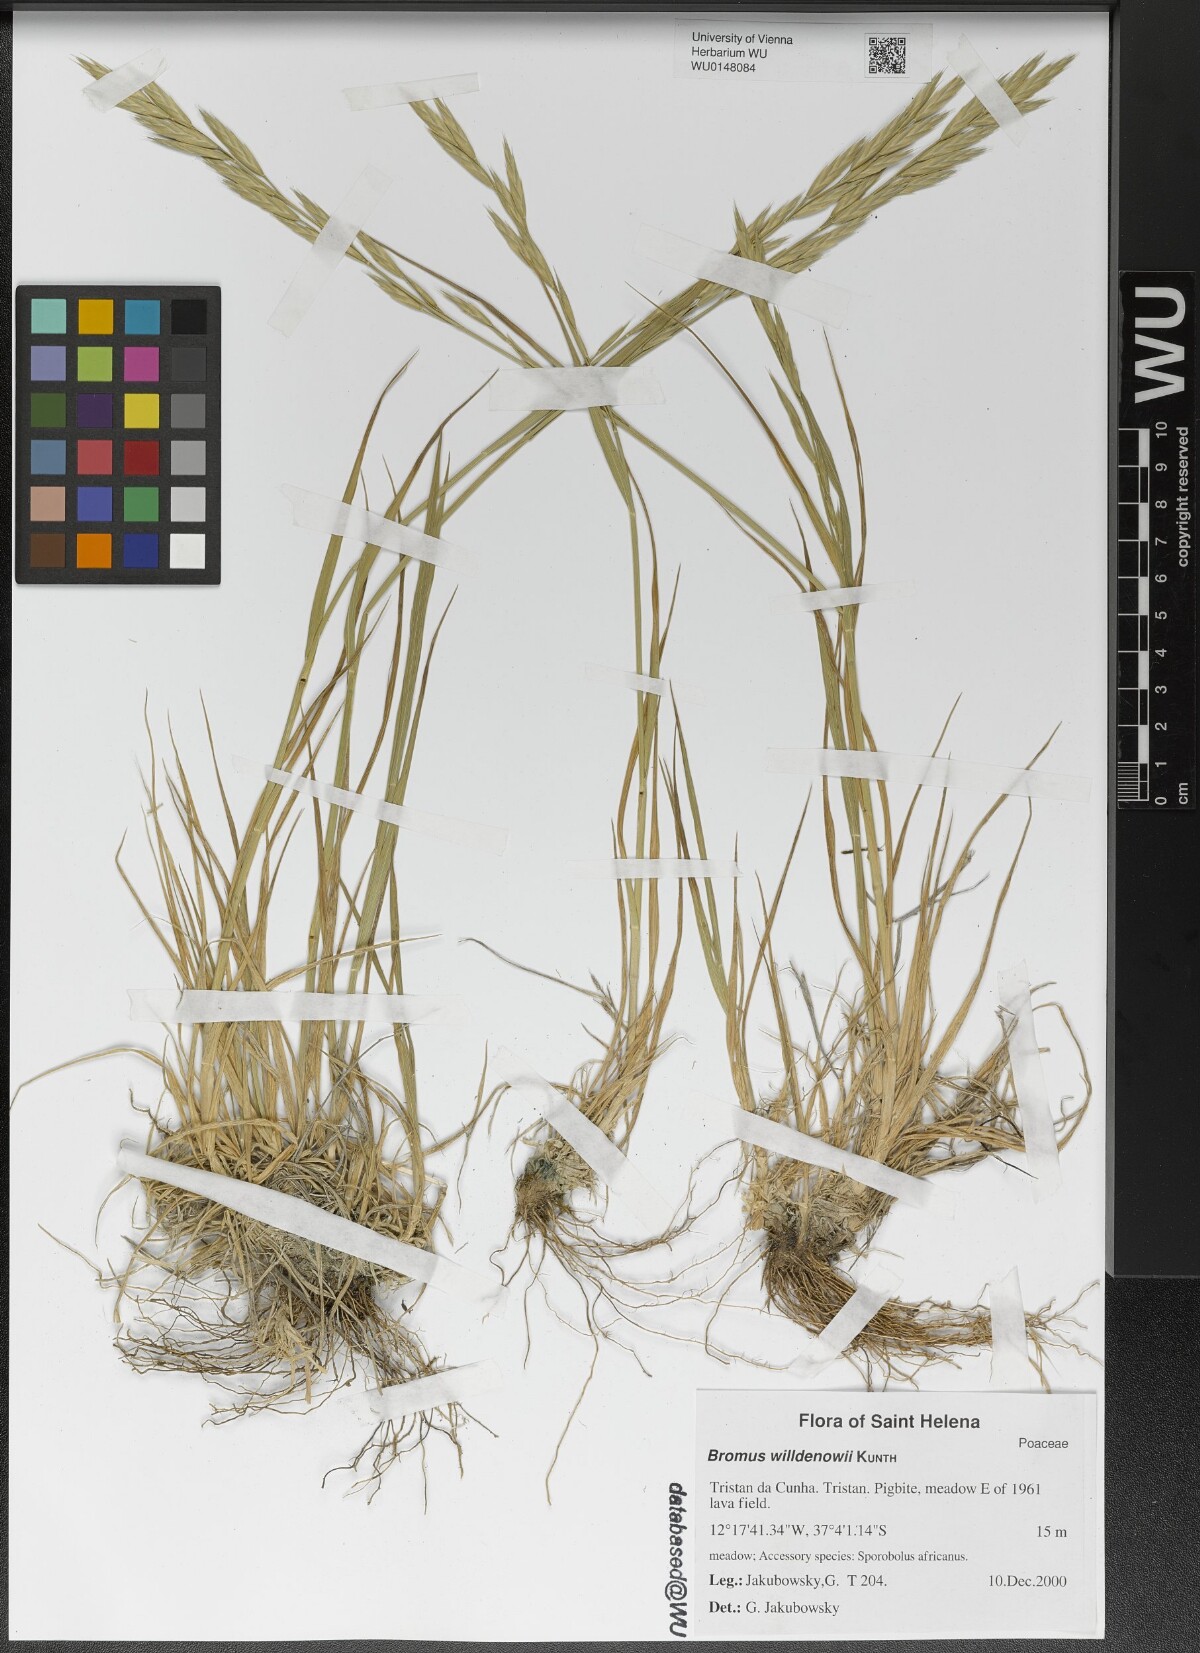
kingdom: Plantae
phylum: Tracheophyta
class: Liliopsida
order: Poales
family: Poaceae
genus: Bromus
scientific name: Bromus catharticus
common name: Rescuegrass
